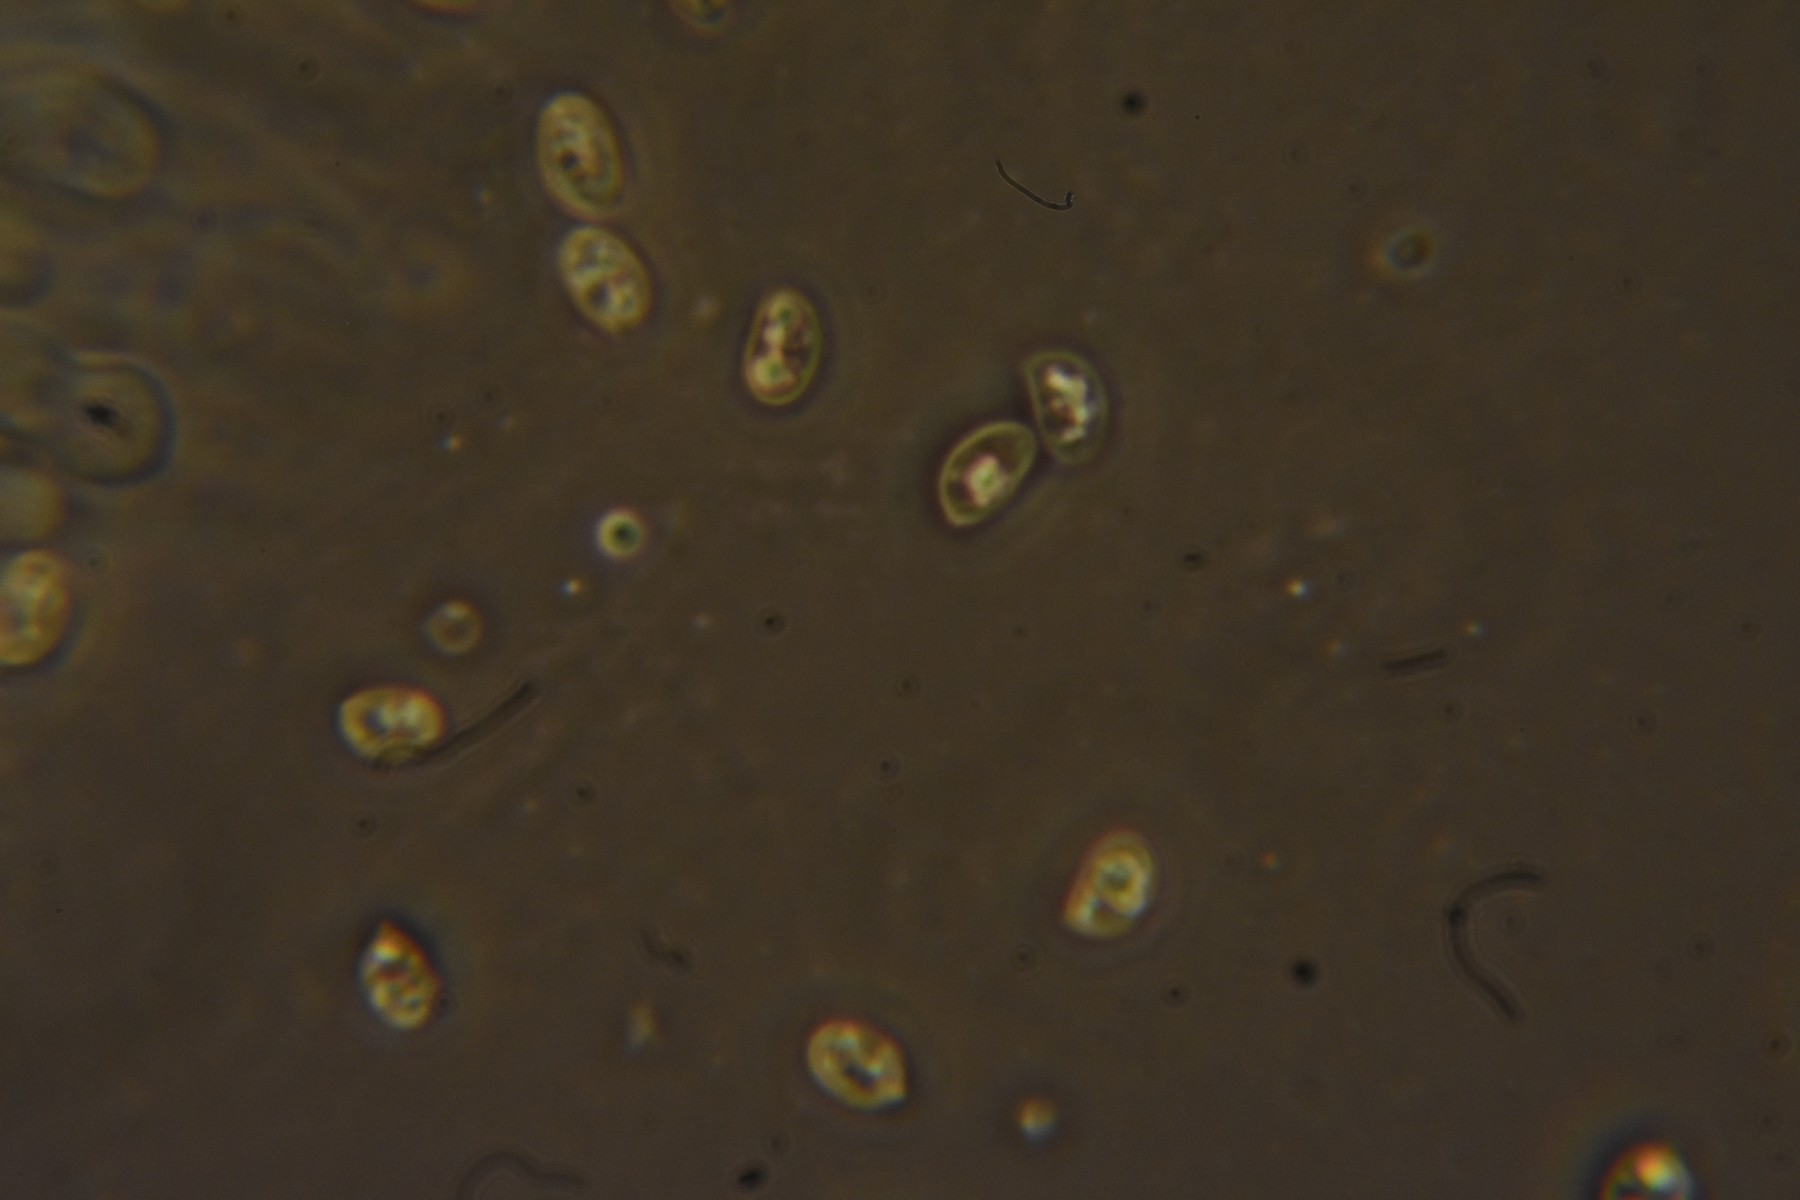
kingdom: Fungi
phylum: Basidiomycota
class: Agaricomycetes
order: Agaricales
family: Tubariaceae
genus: Tubaria
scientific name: Tubaria furfuracea
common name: kliddet fnughat
